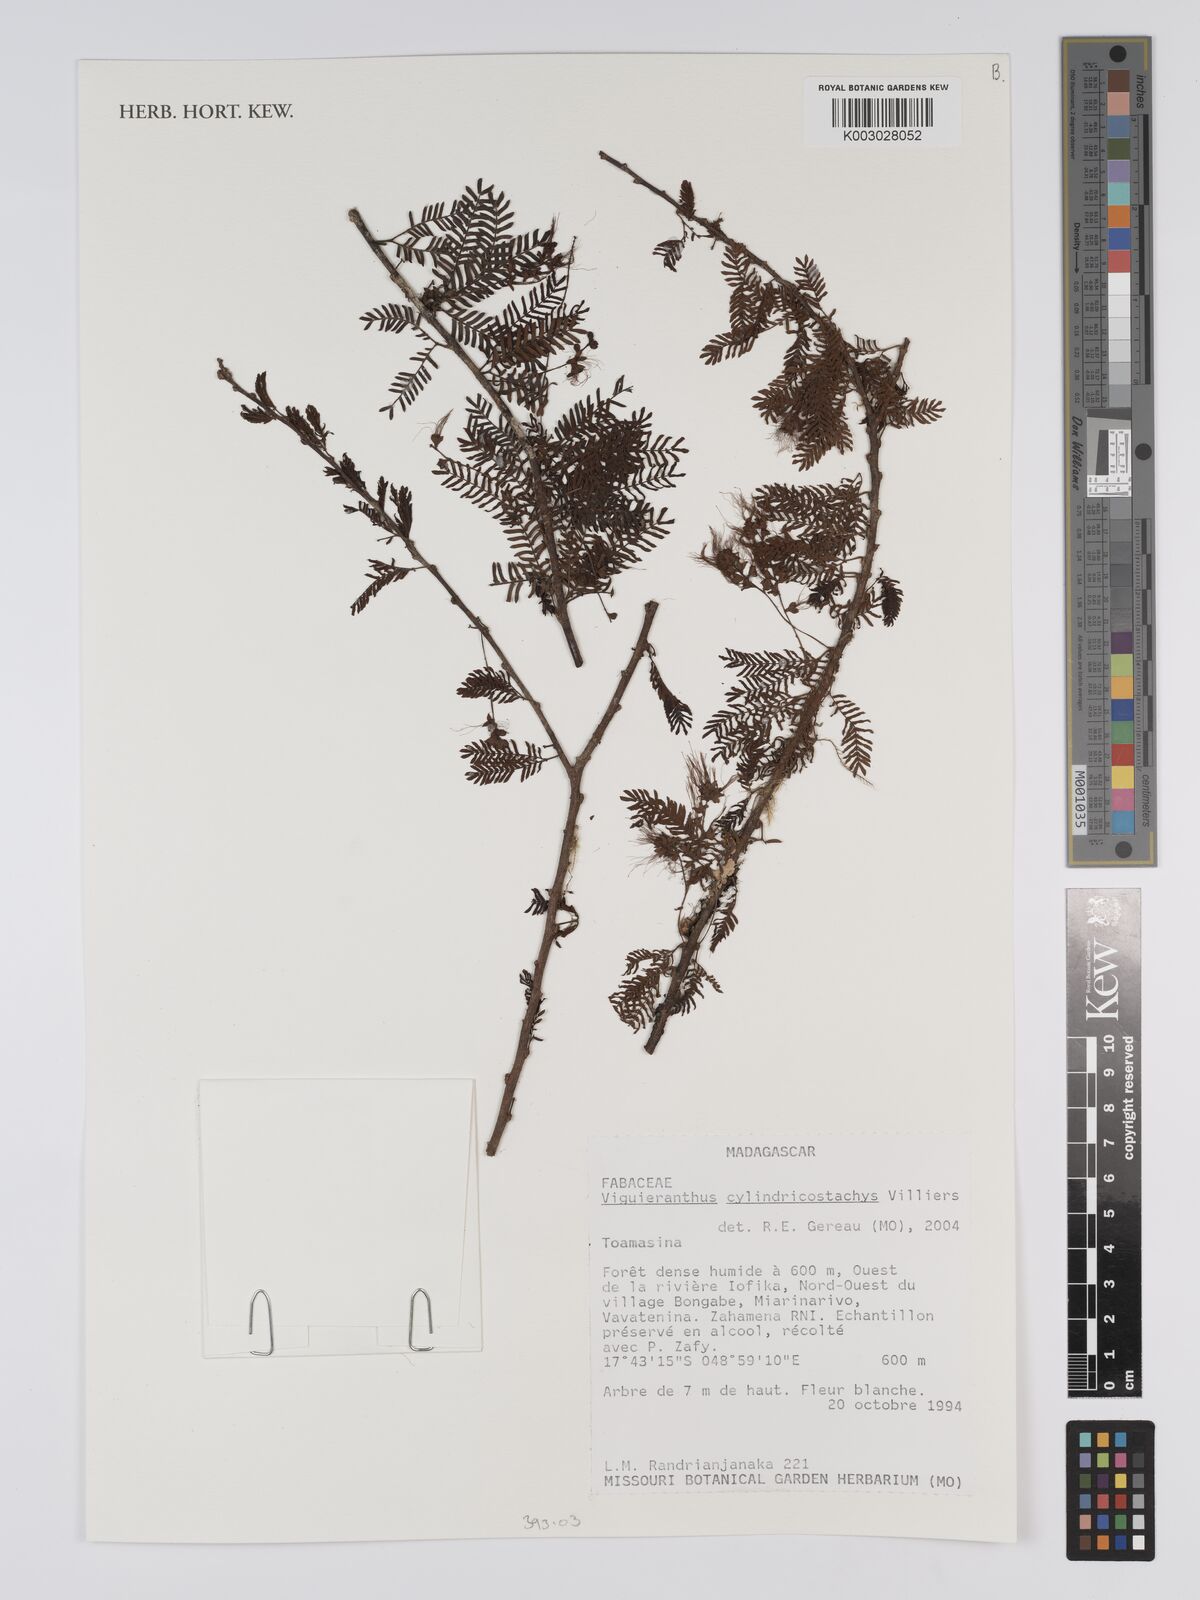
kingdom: Plantae
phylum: Tracheophyta
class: Magnoliopsida
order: Fabales
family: Fabaceae
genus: Viguieranthus
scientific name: Viguieranthus cylindricostachys
